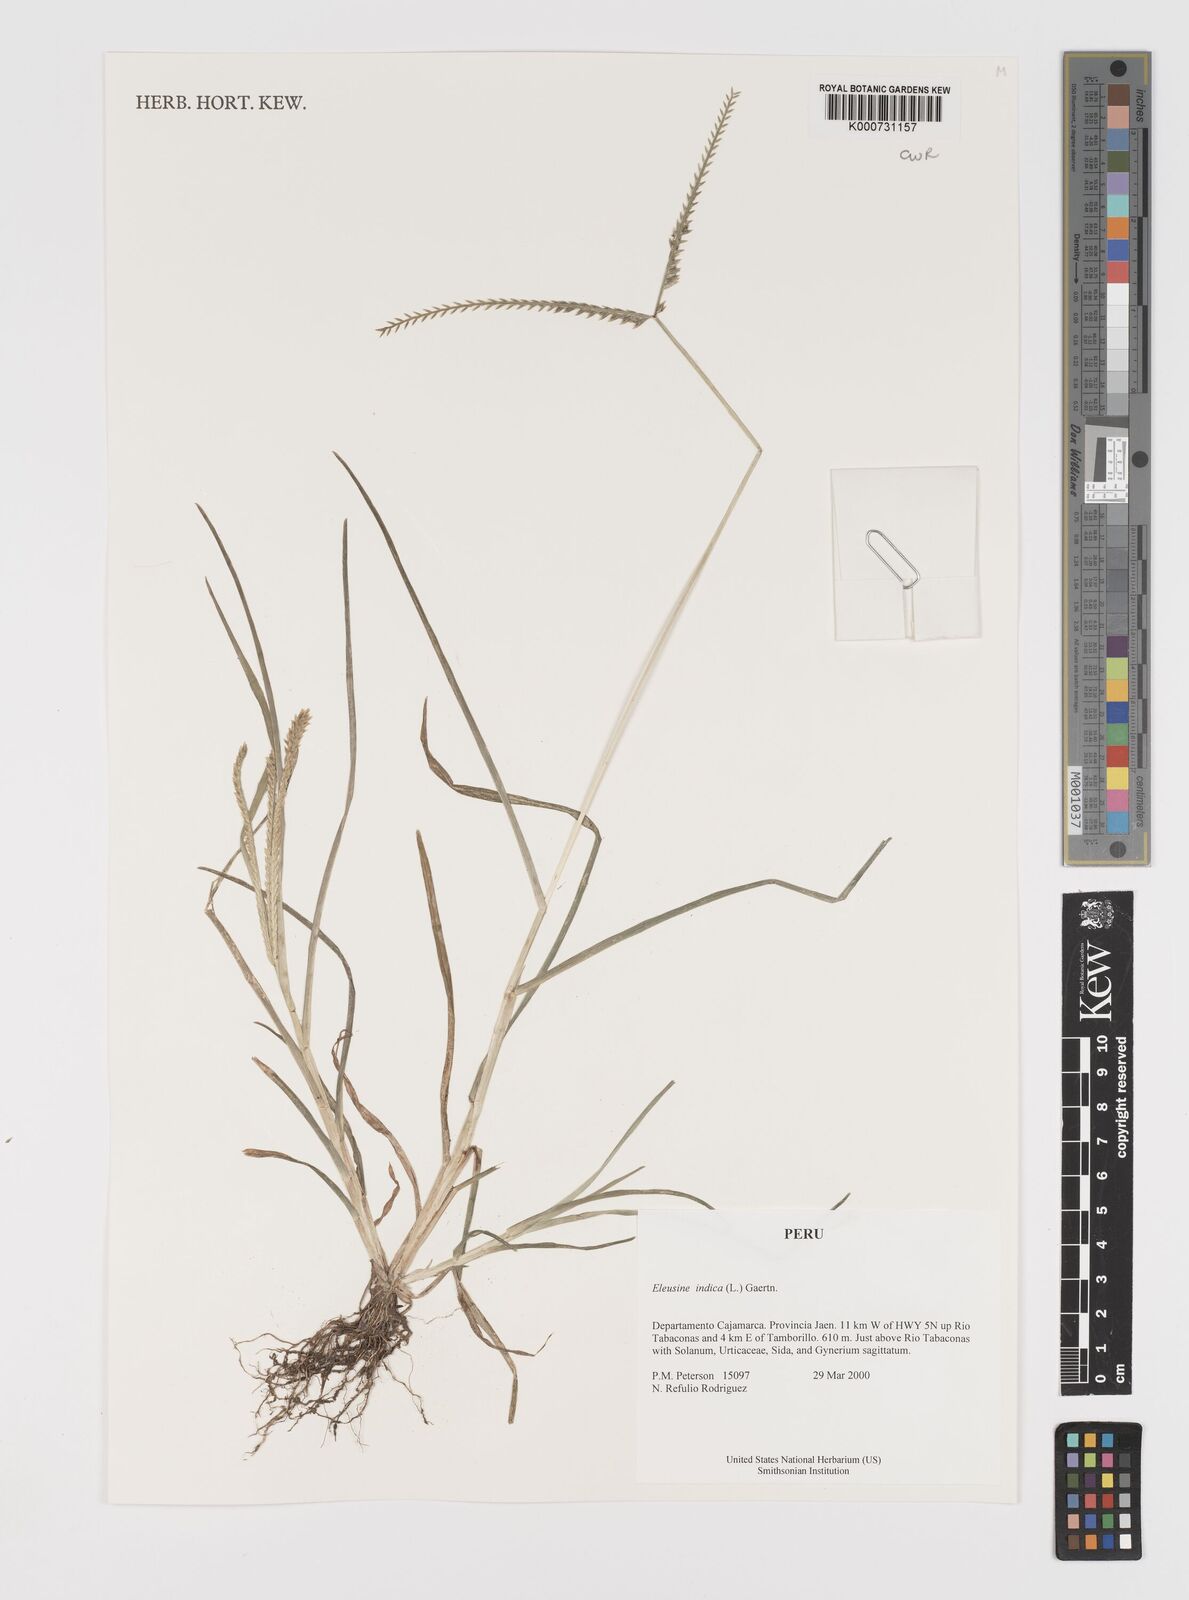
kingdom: Plantae
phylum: Tracheophyta
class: Liliopsida
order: Poales
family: Poaceae
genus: Eleusine
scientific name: Eleusine indica
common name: Yard-grass
